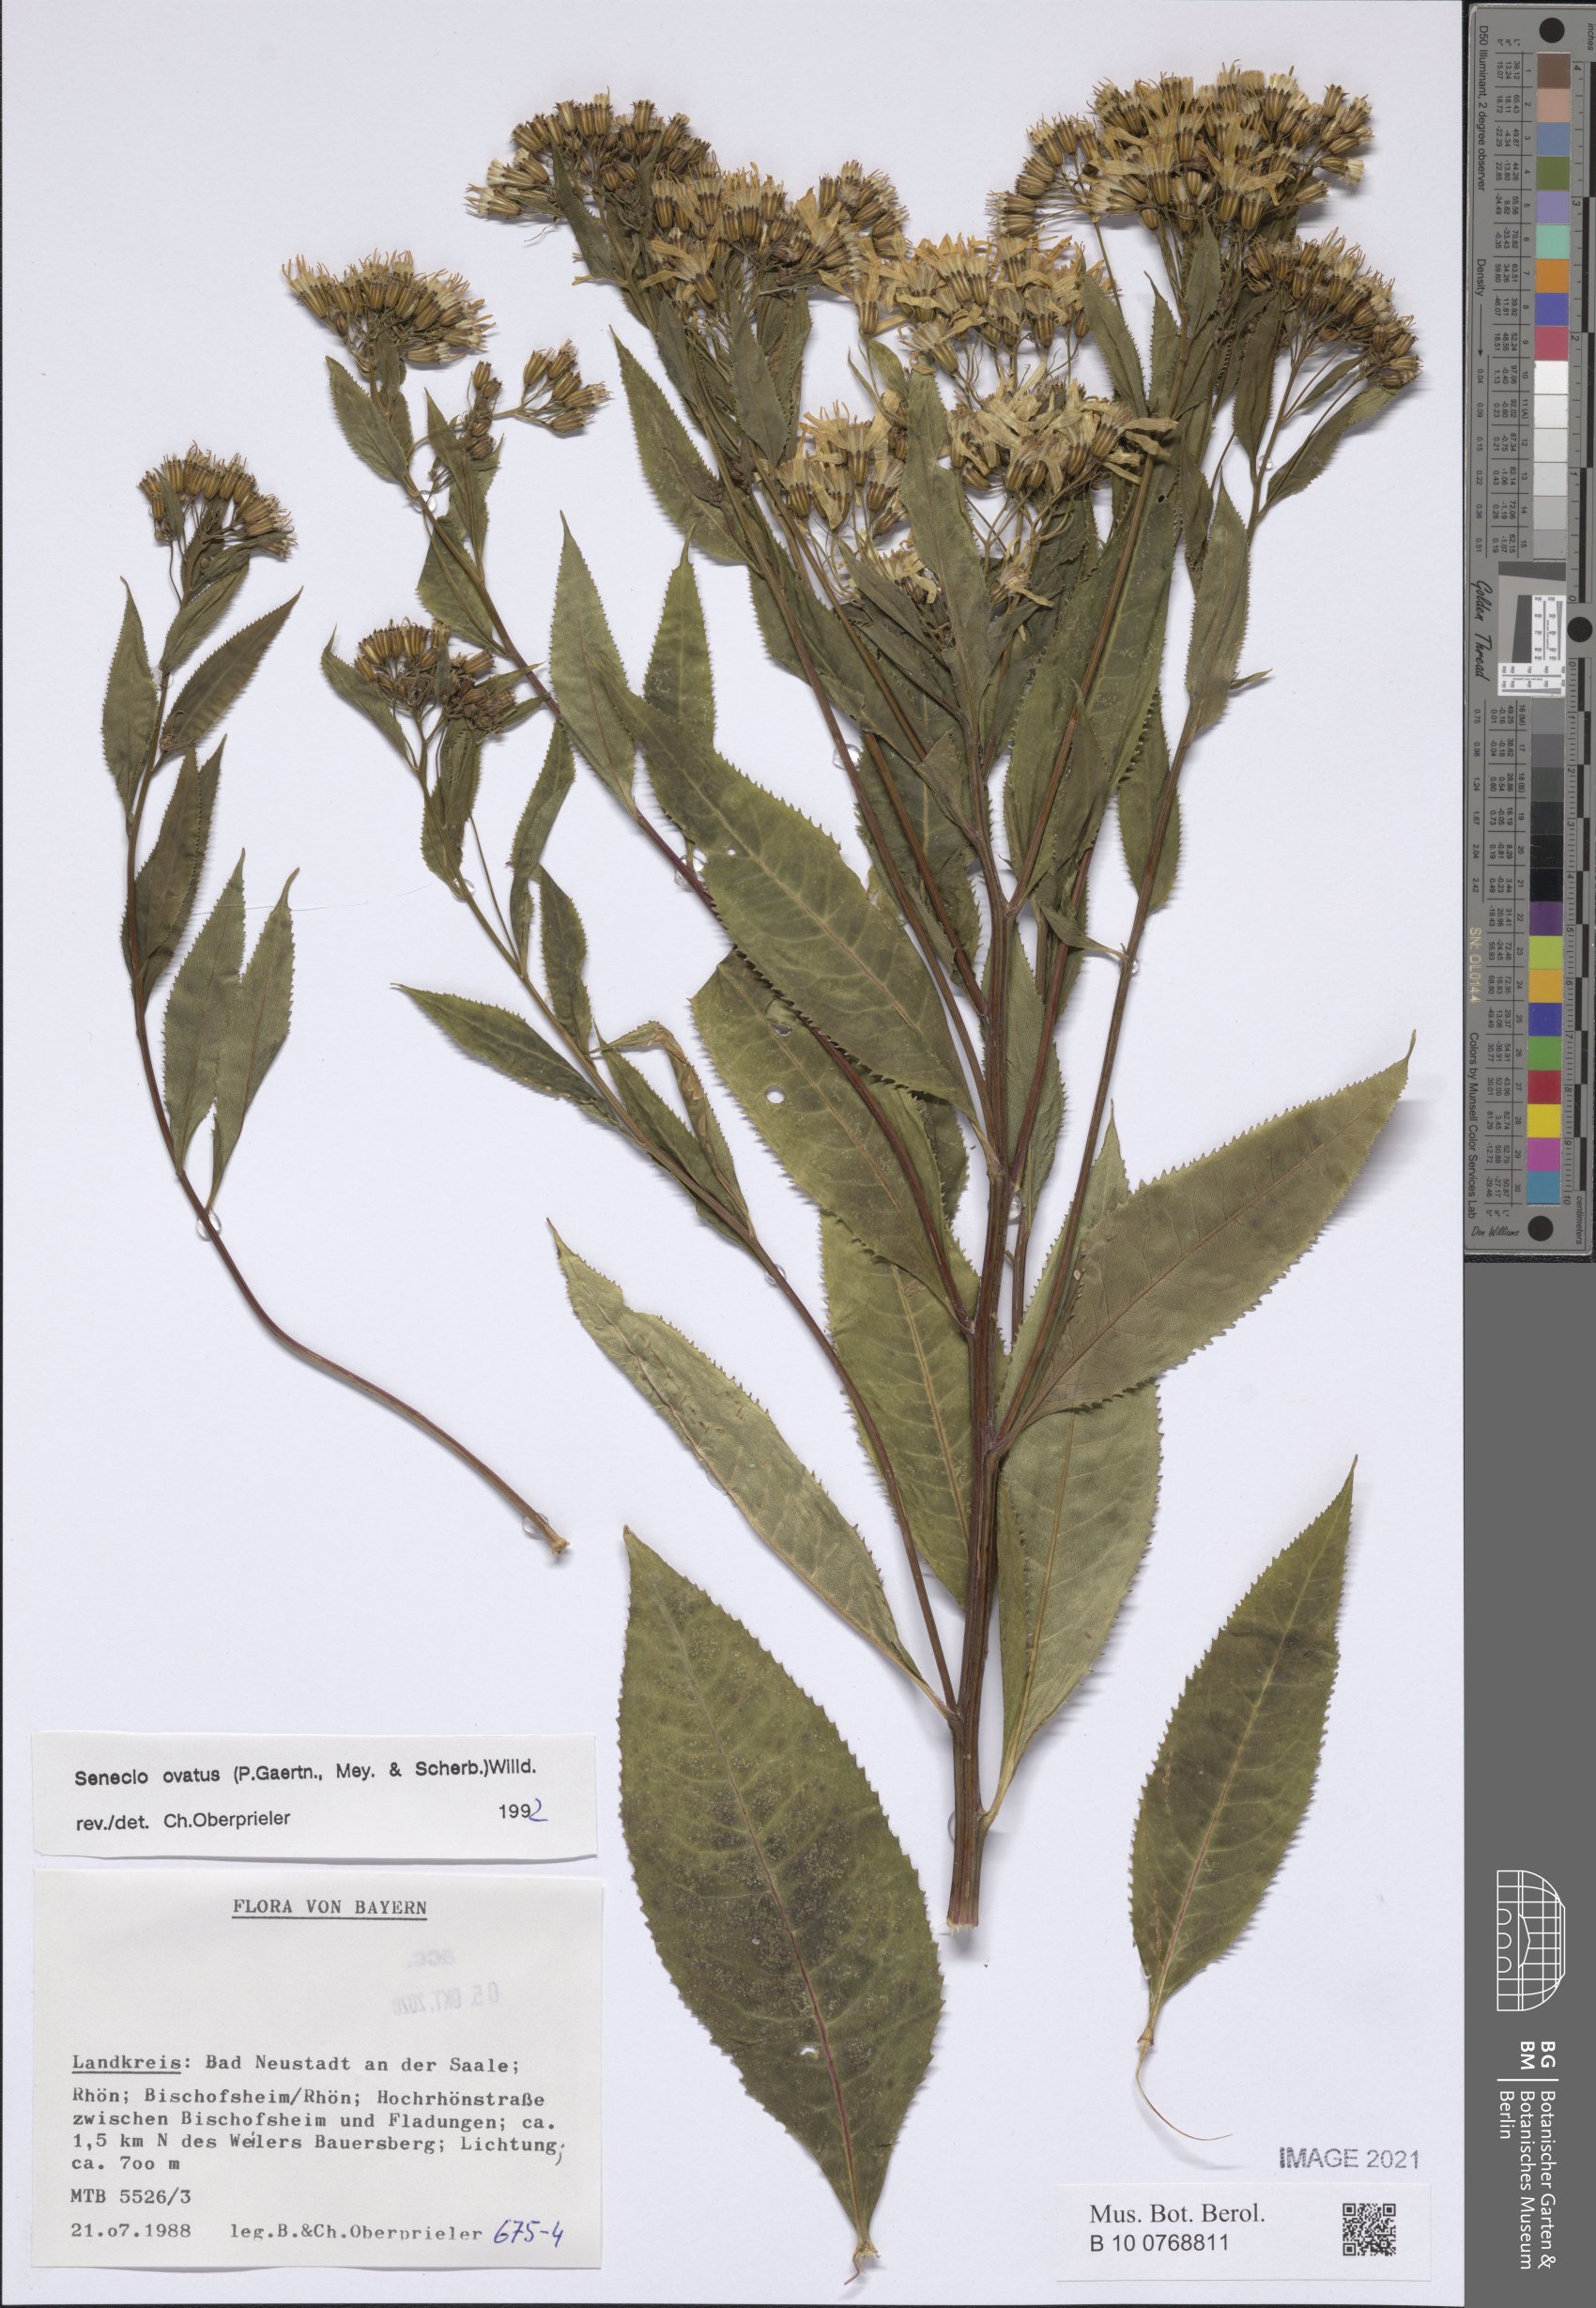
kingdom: Plantae
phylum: Tracheophyta
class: Magnoliopsida
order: Asterales
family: Asteraceae
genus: Senecio
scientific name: Senecio ovatus
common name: Wood ragwort
